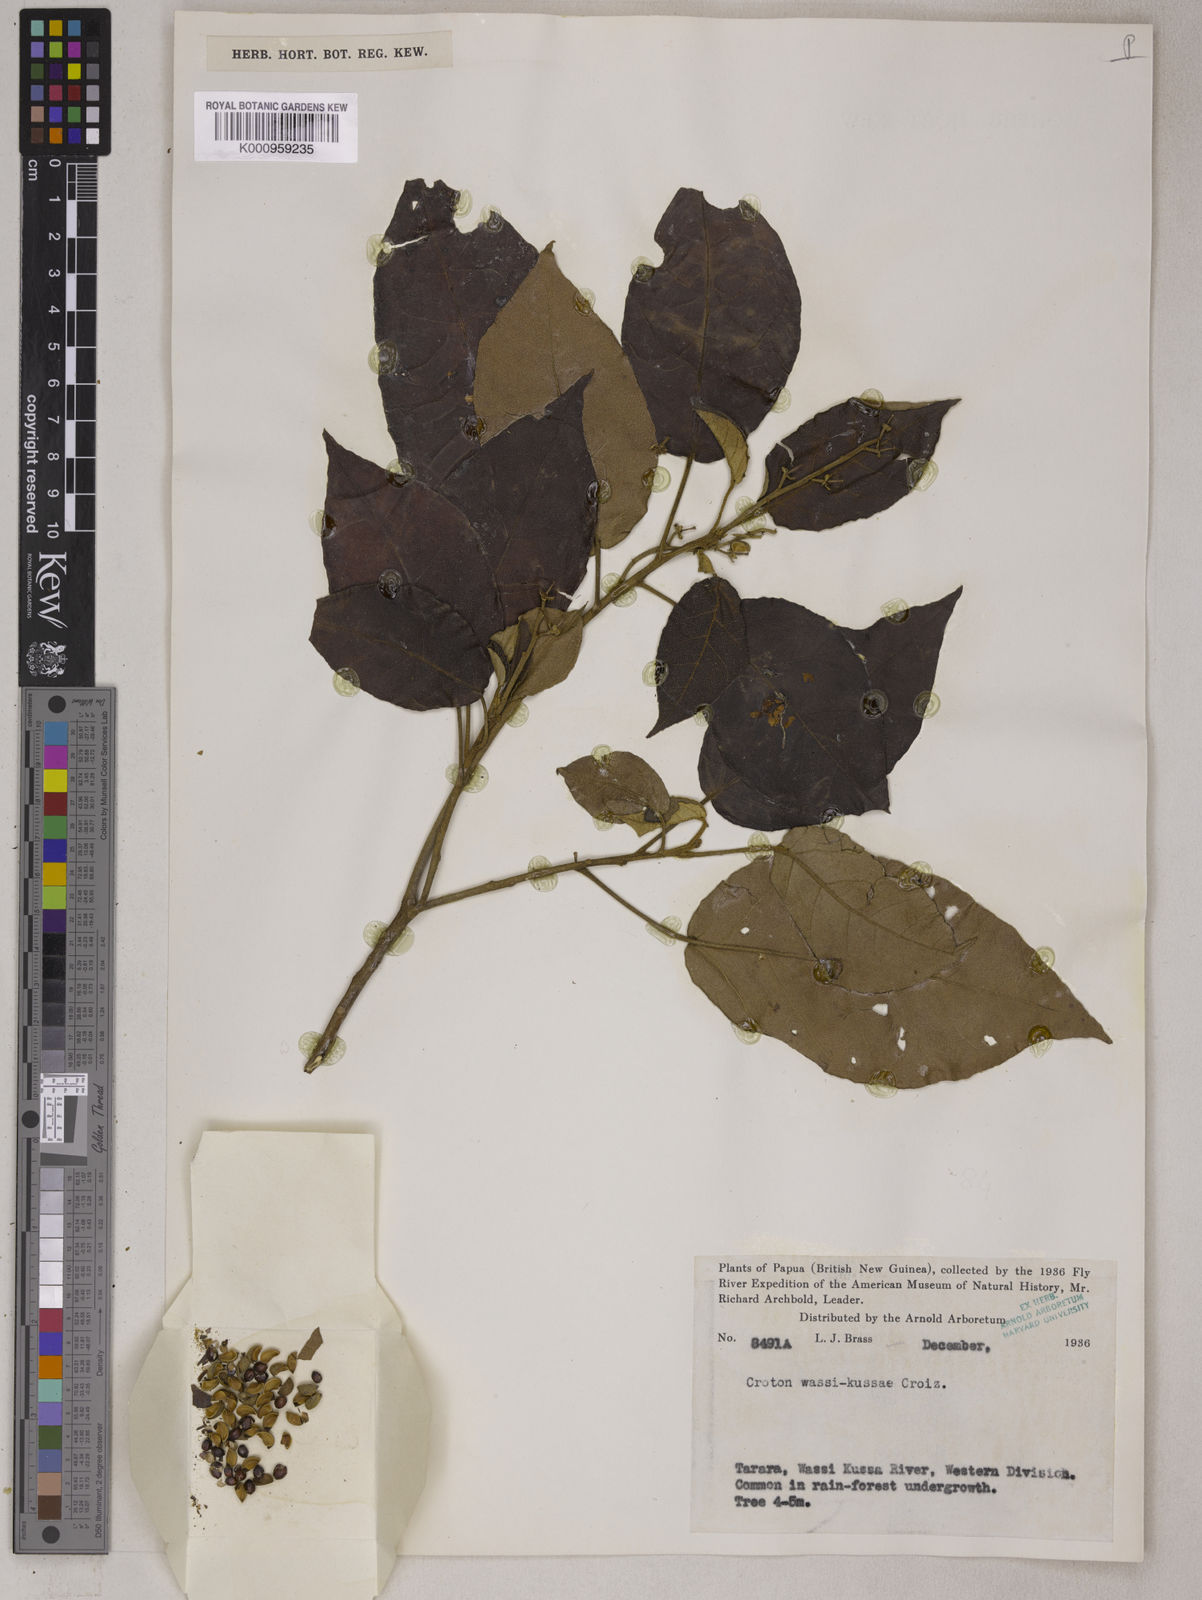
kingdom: Plantae
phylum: Tracheophyta
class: Magnoliopsida
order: Malpighiales
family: Euphorbiaceae
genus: Croton
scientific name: Croton wassi-kussae
